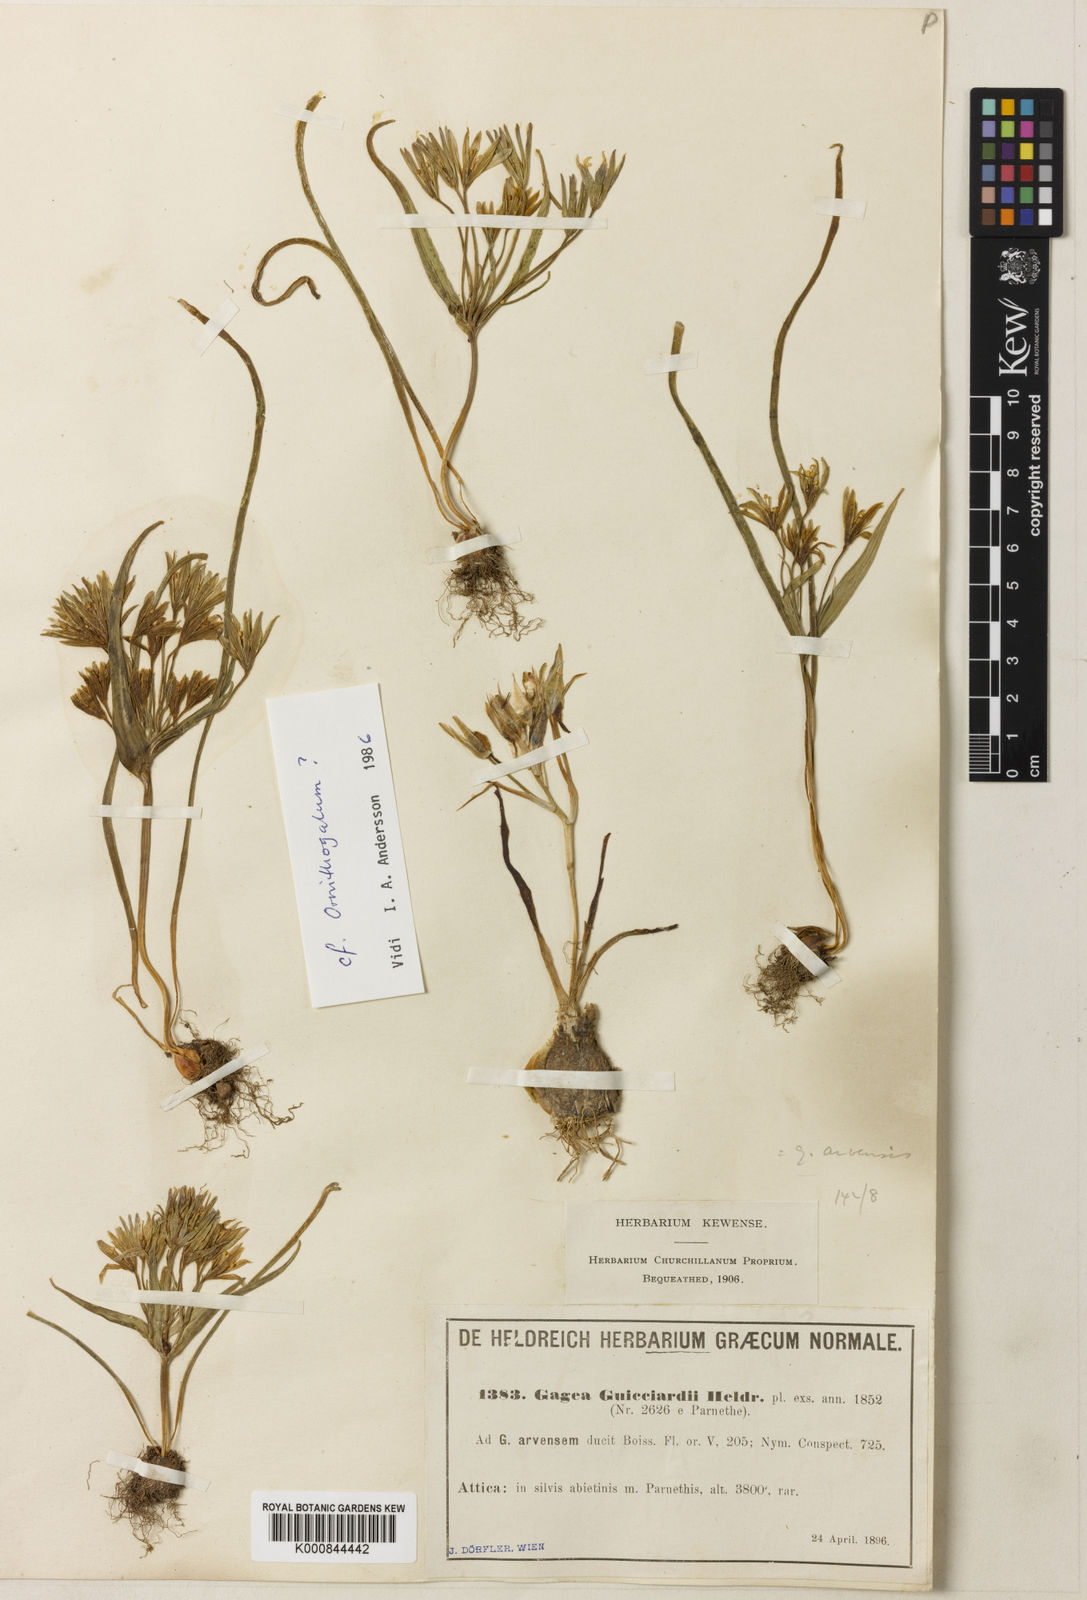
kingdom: Plantae
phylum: Tracheophyta
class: Liliopsida
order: Liliales
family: Liliaceae
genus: Gagea
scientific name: Gagea minima
